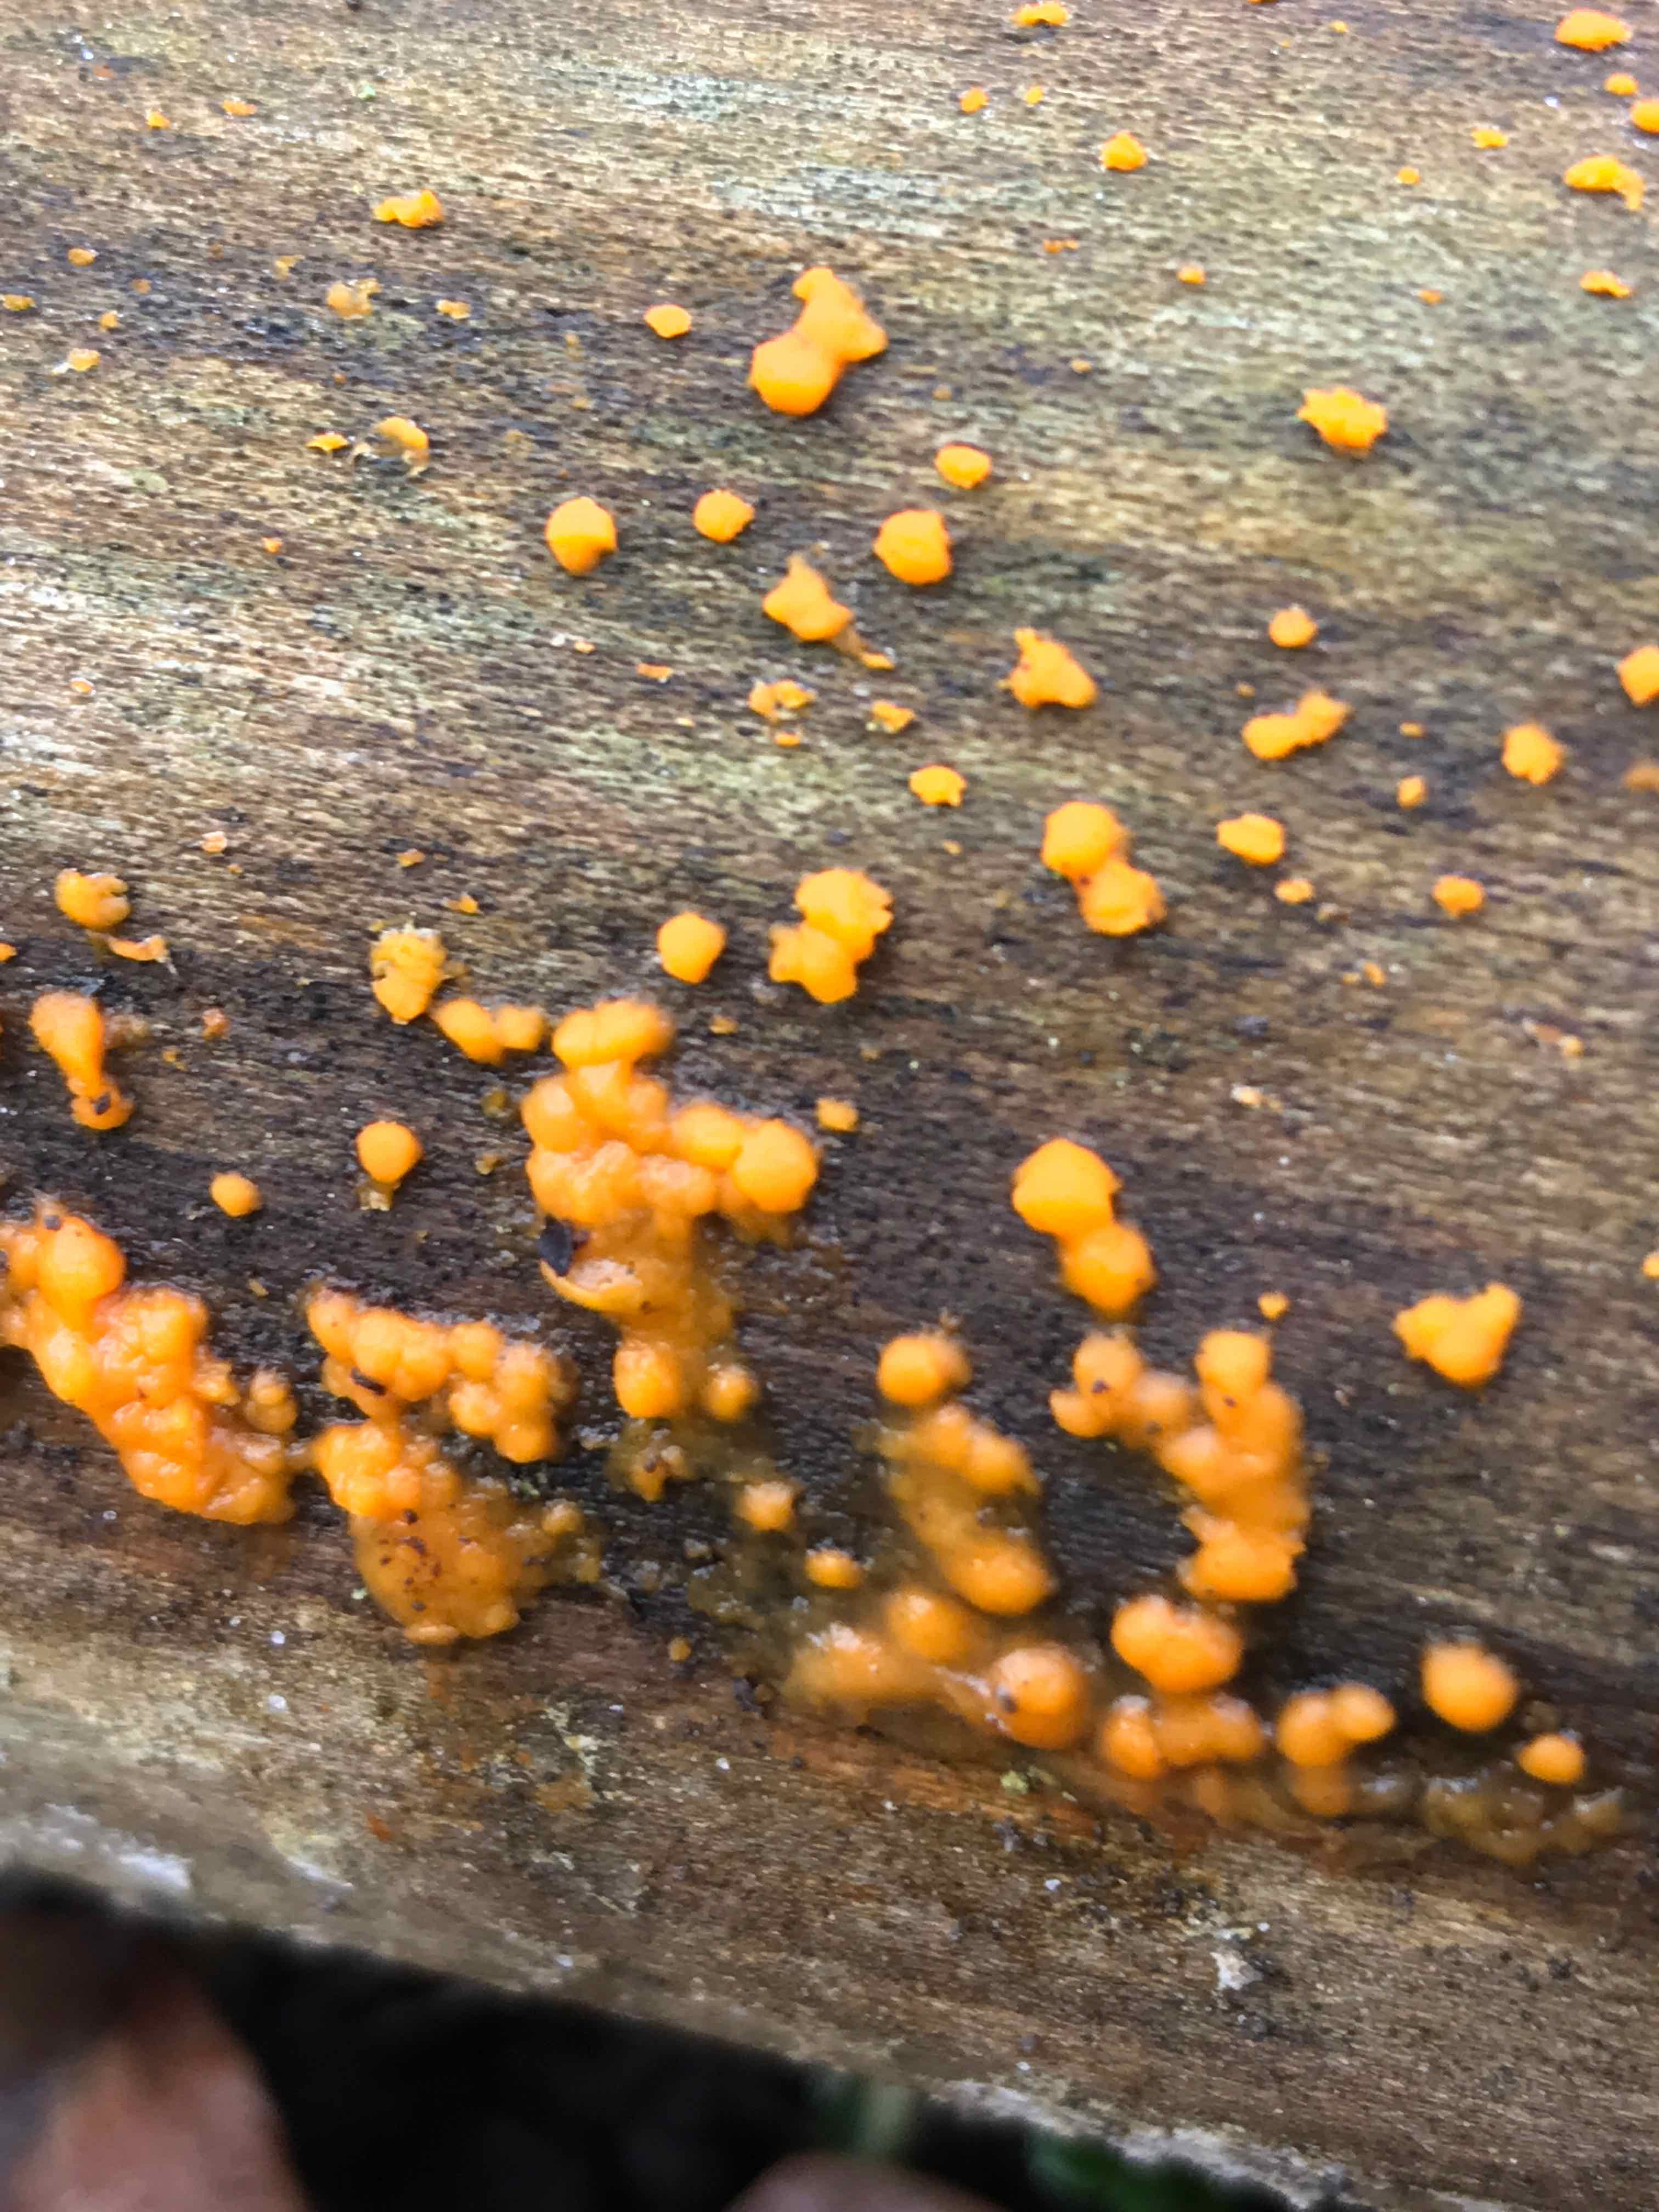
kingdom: Fungi
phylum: Basidiomycota
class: Dacrymycetes
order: Dacrymycetales
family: Dacrymycetaceae
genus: Dacrymyces
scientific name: Dacrymyces stillatus
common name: almindelig tåresvamp
